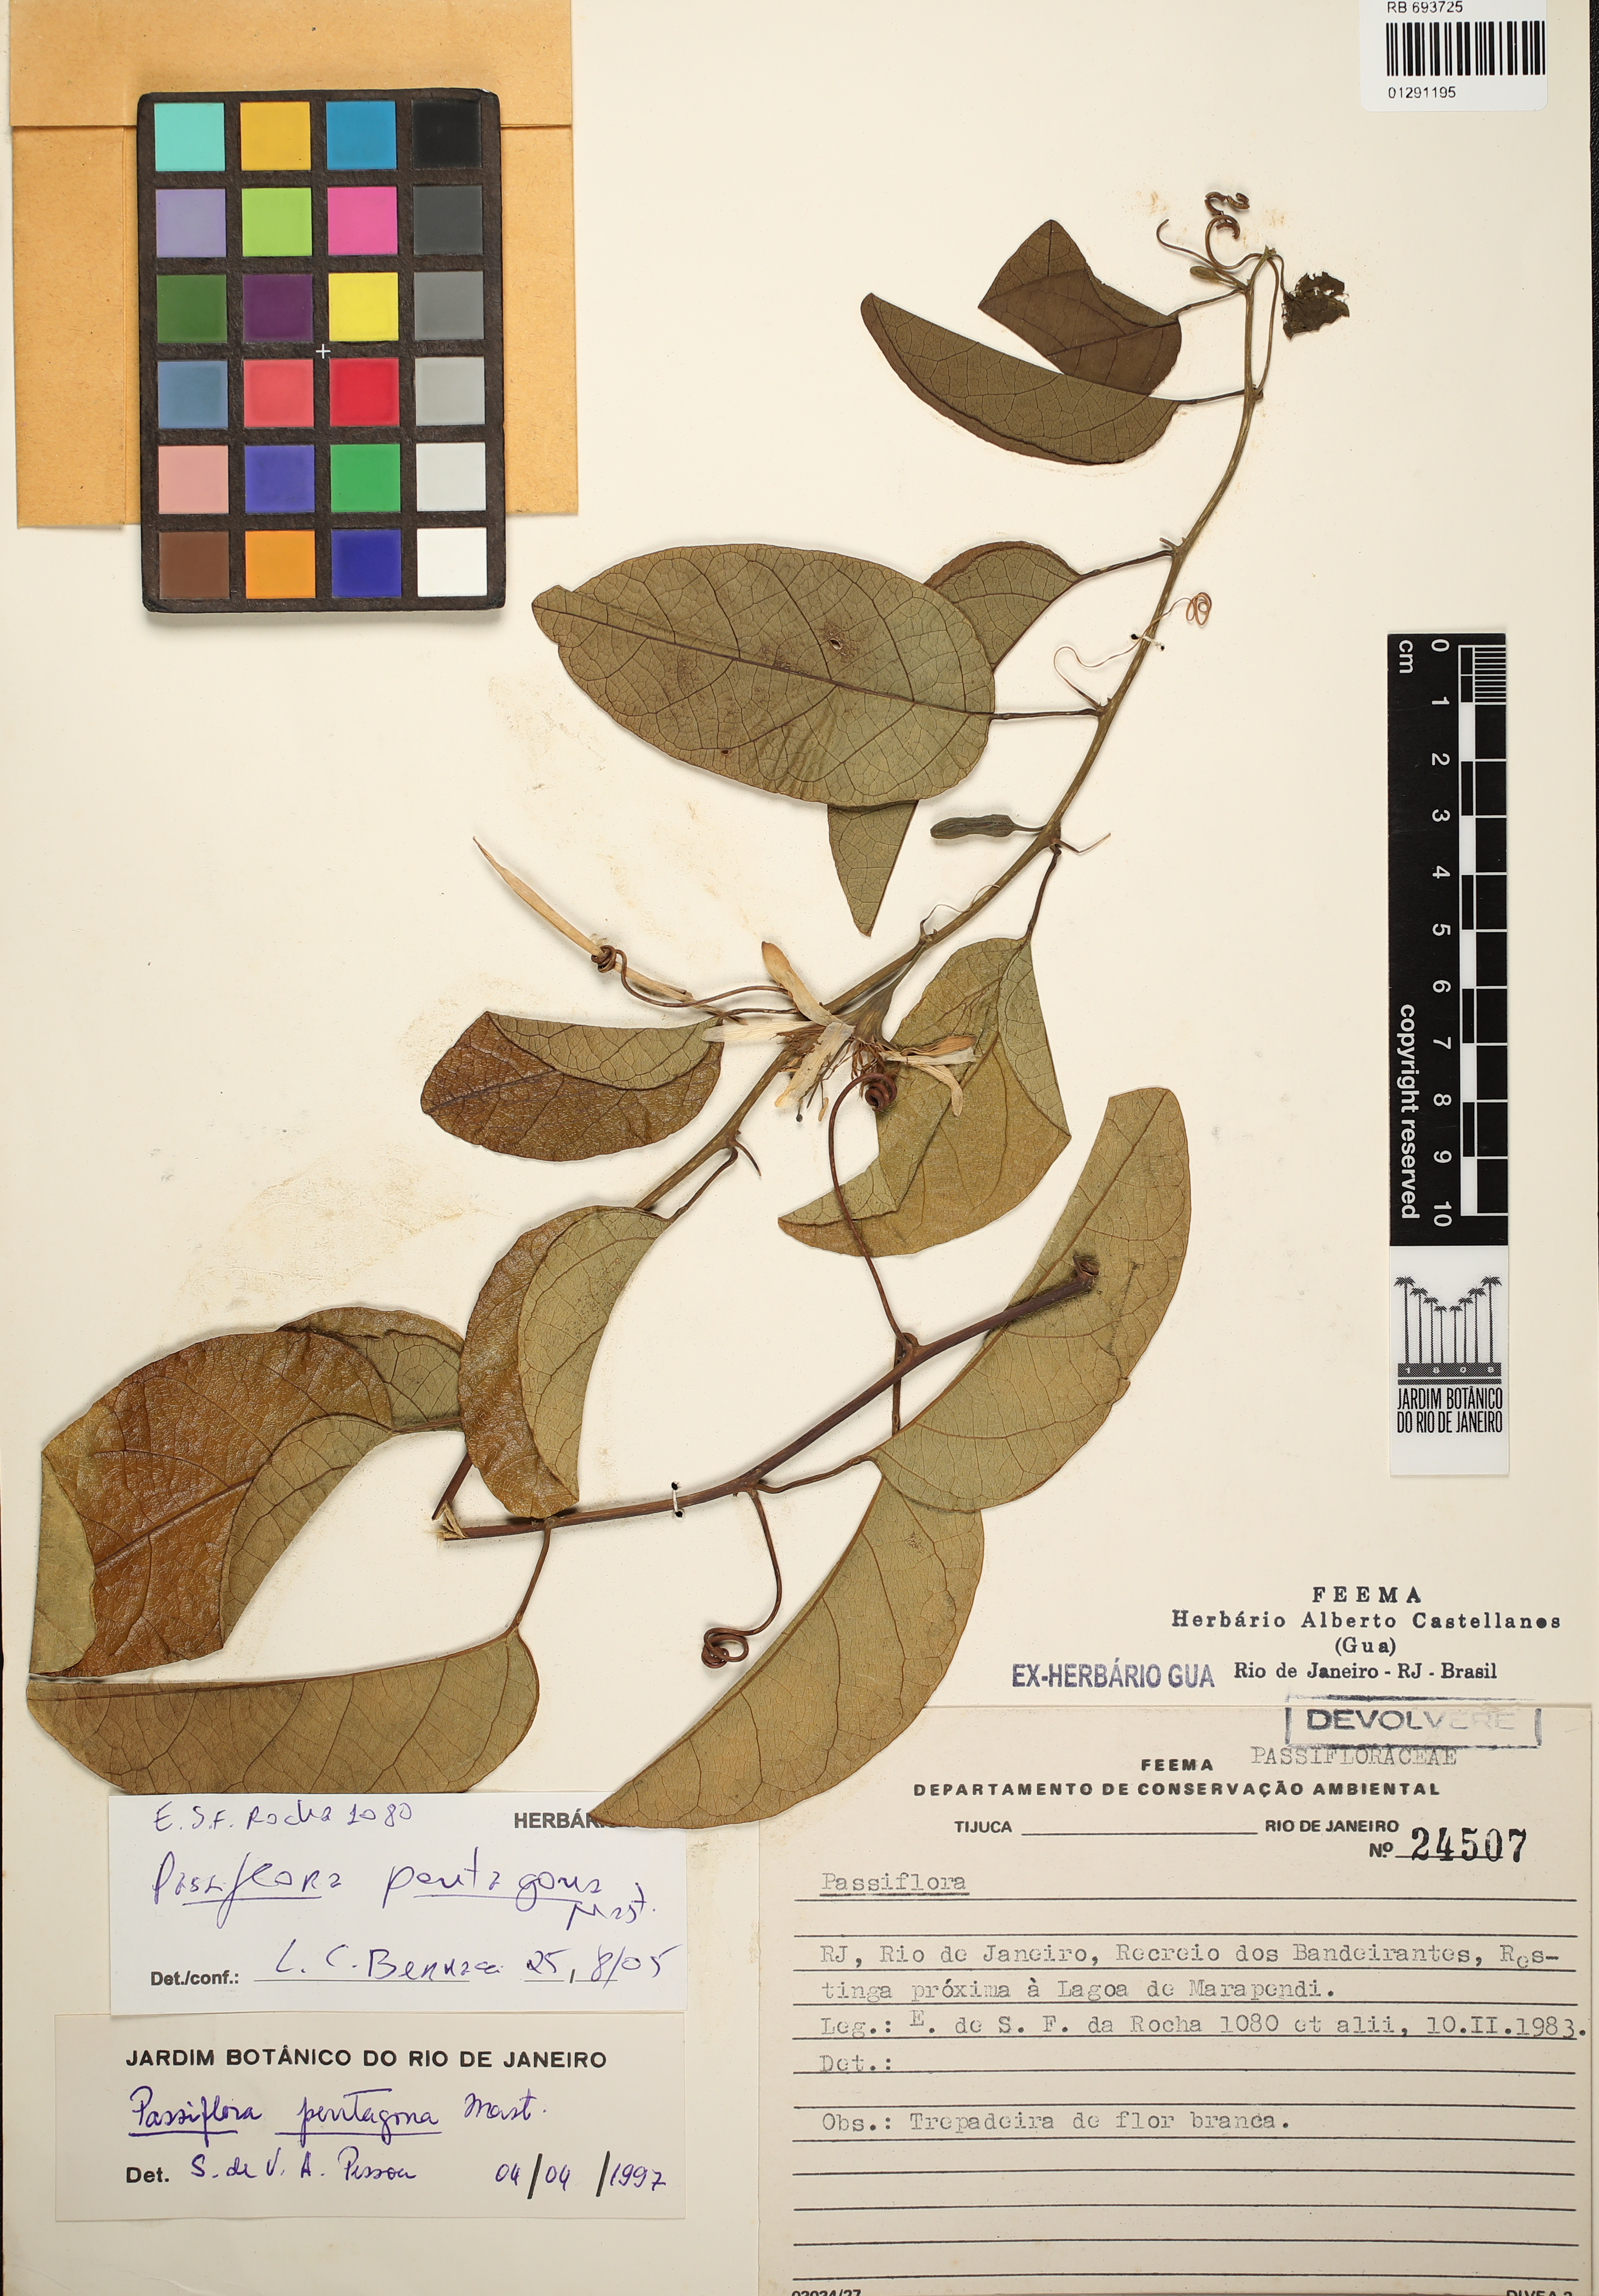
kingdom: Plantae
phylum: Tracheophyta
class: Magnoliopsida
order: Malpighiales
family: Passifloraceae
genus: Passiflora
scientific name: Passiflora pentagona
